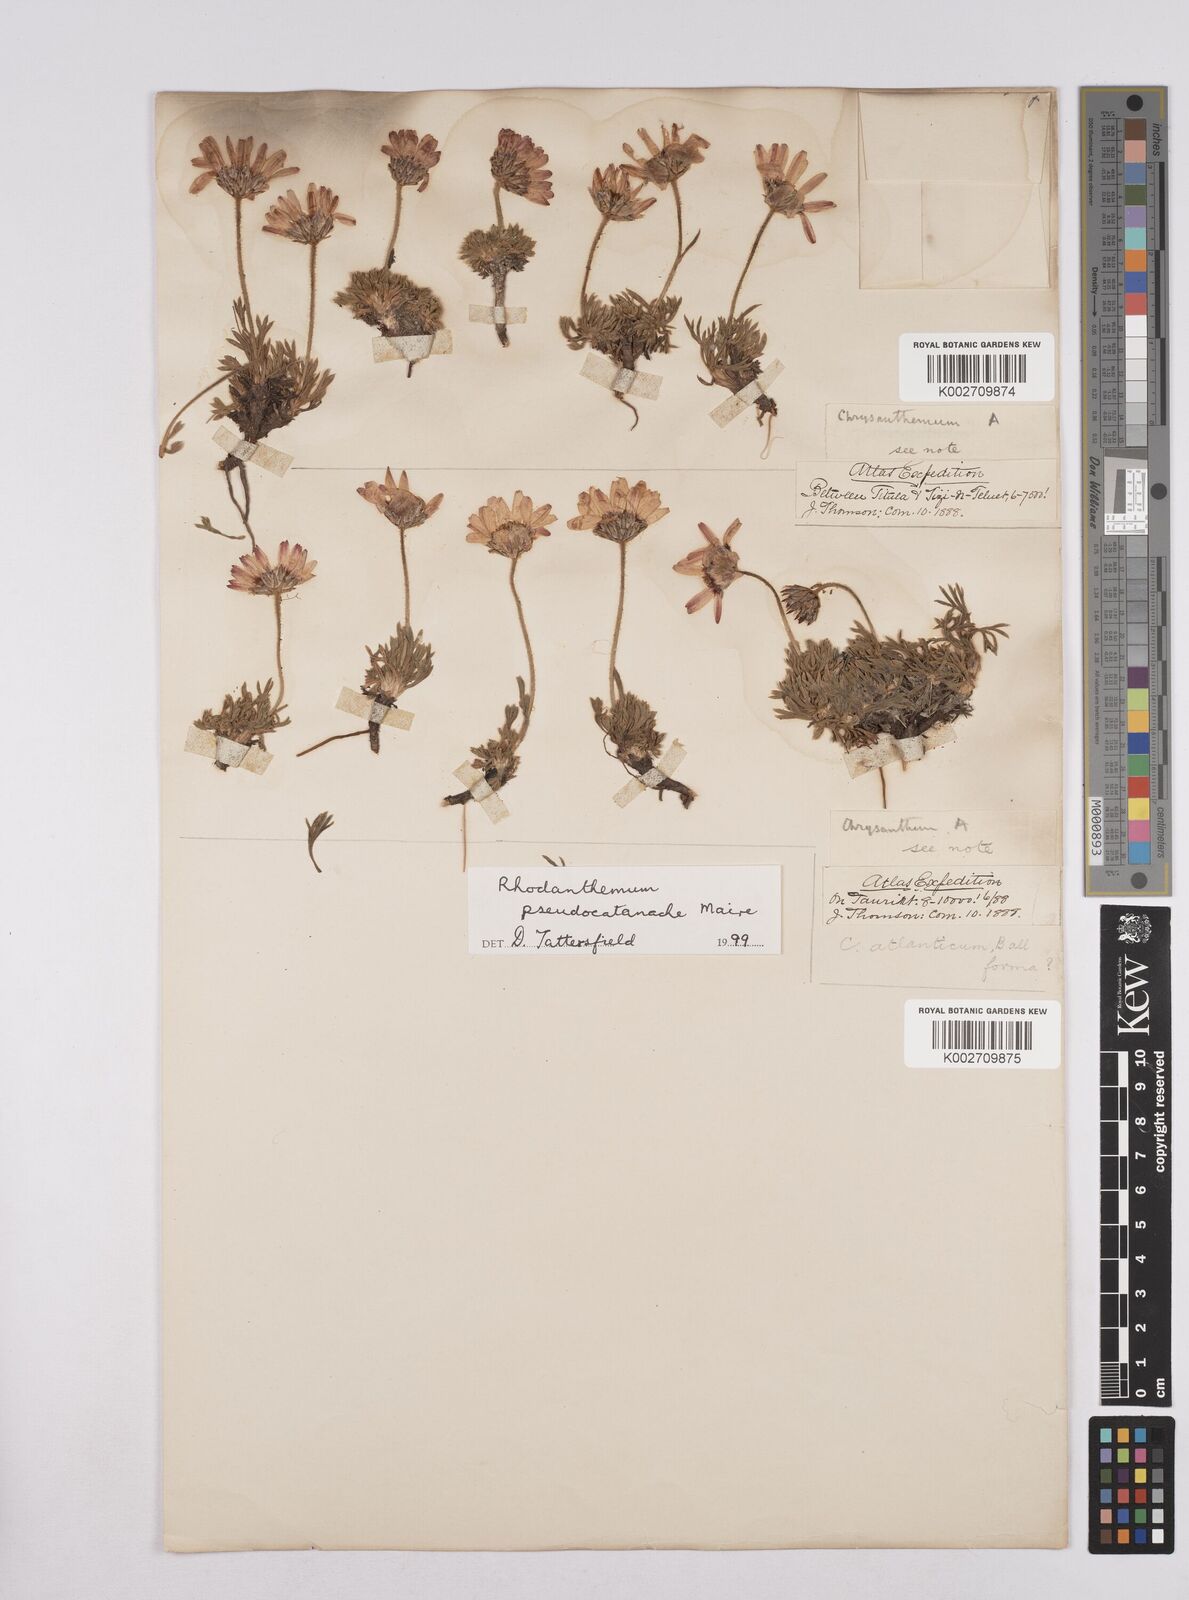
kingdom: Plantae
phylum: Tracheophyta
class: Magnoliopsida
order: Asterales
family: Asteraceae
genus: Rhodanthemum
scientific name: Rhodanthemum pseudocatananche
